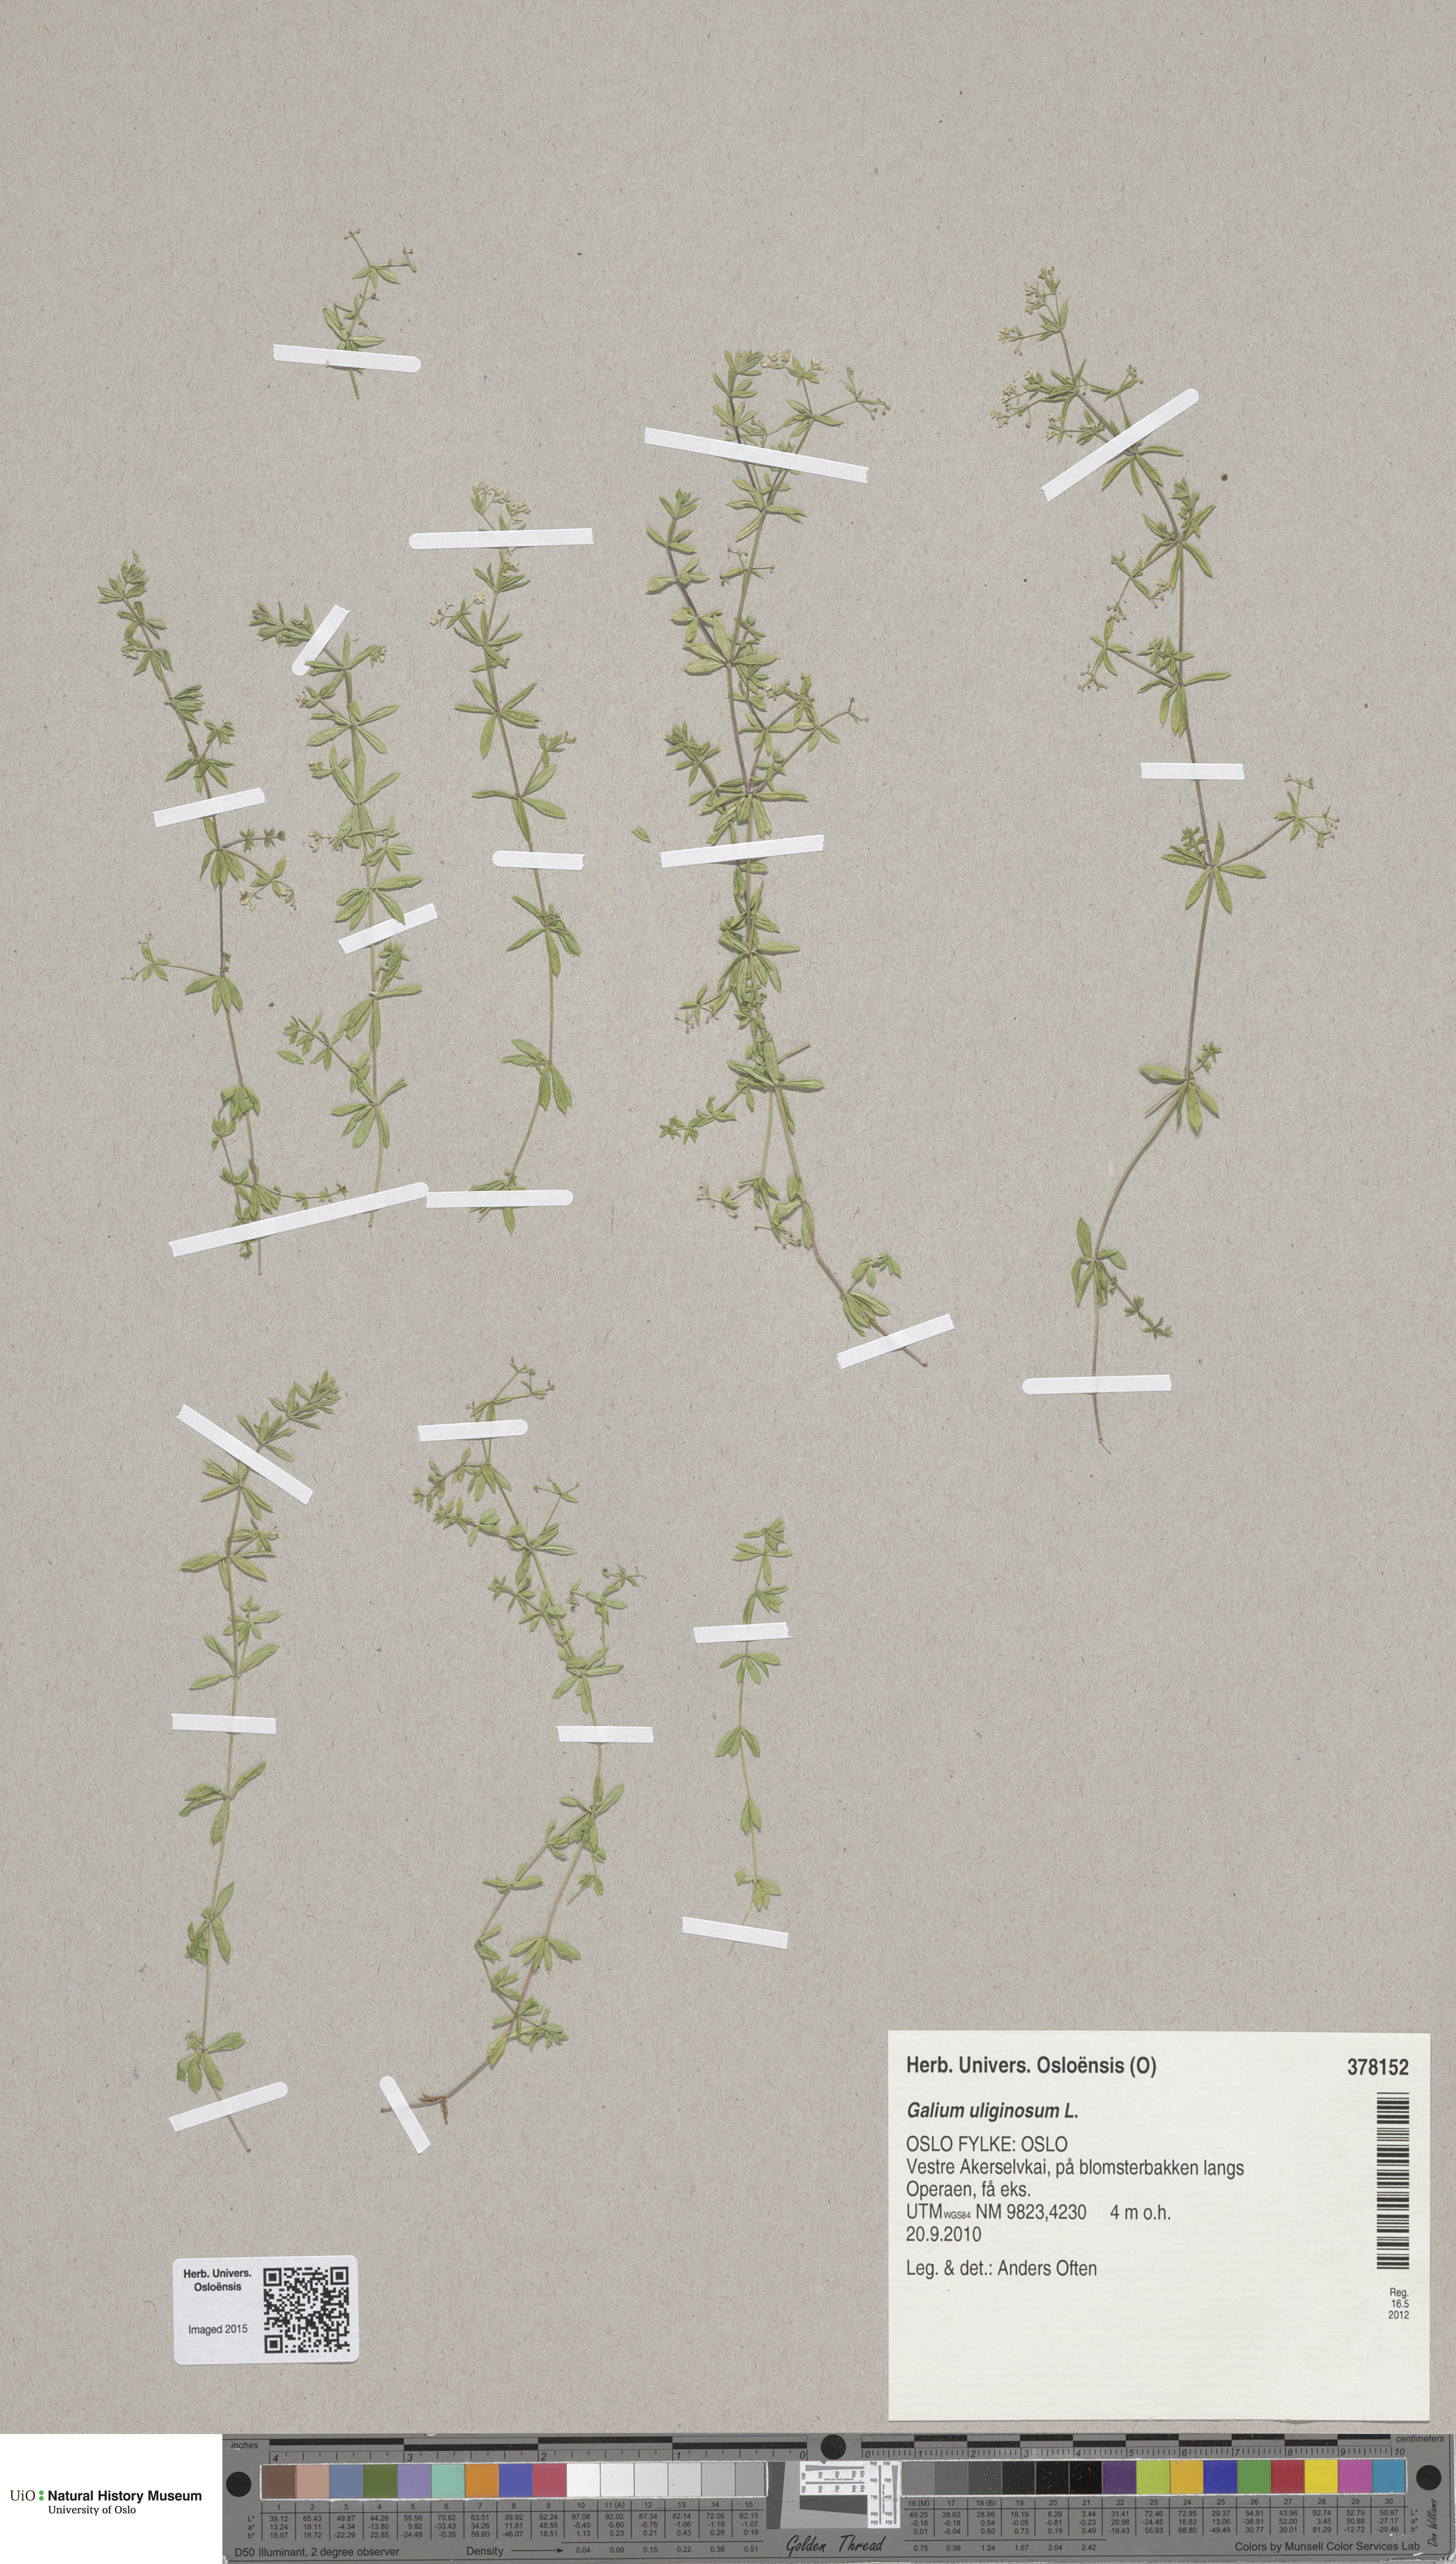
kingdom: Plantae
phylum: Tracheophyta
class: Magnoliopsida
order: Gentianales
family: Rubiaceae
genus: Galium
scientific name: Galium uliginosum
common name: Fen bedstraw
